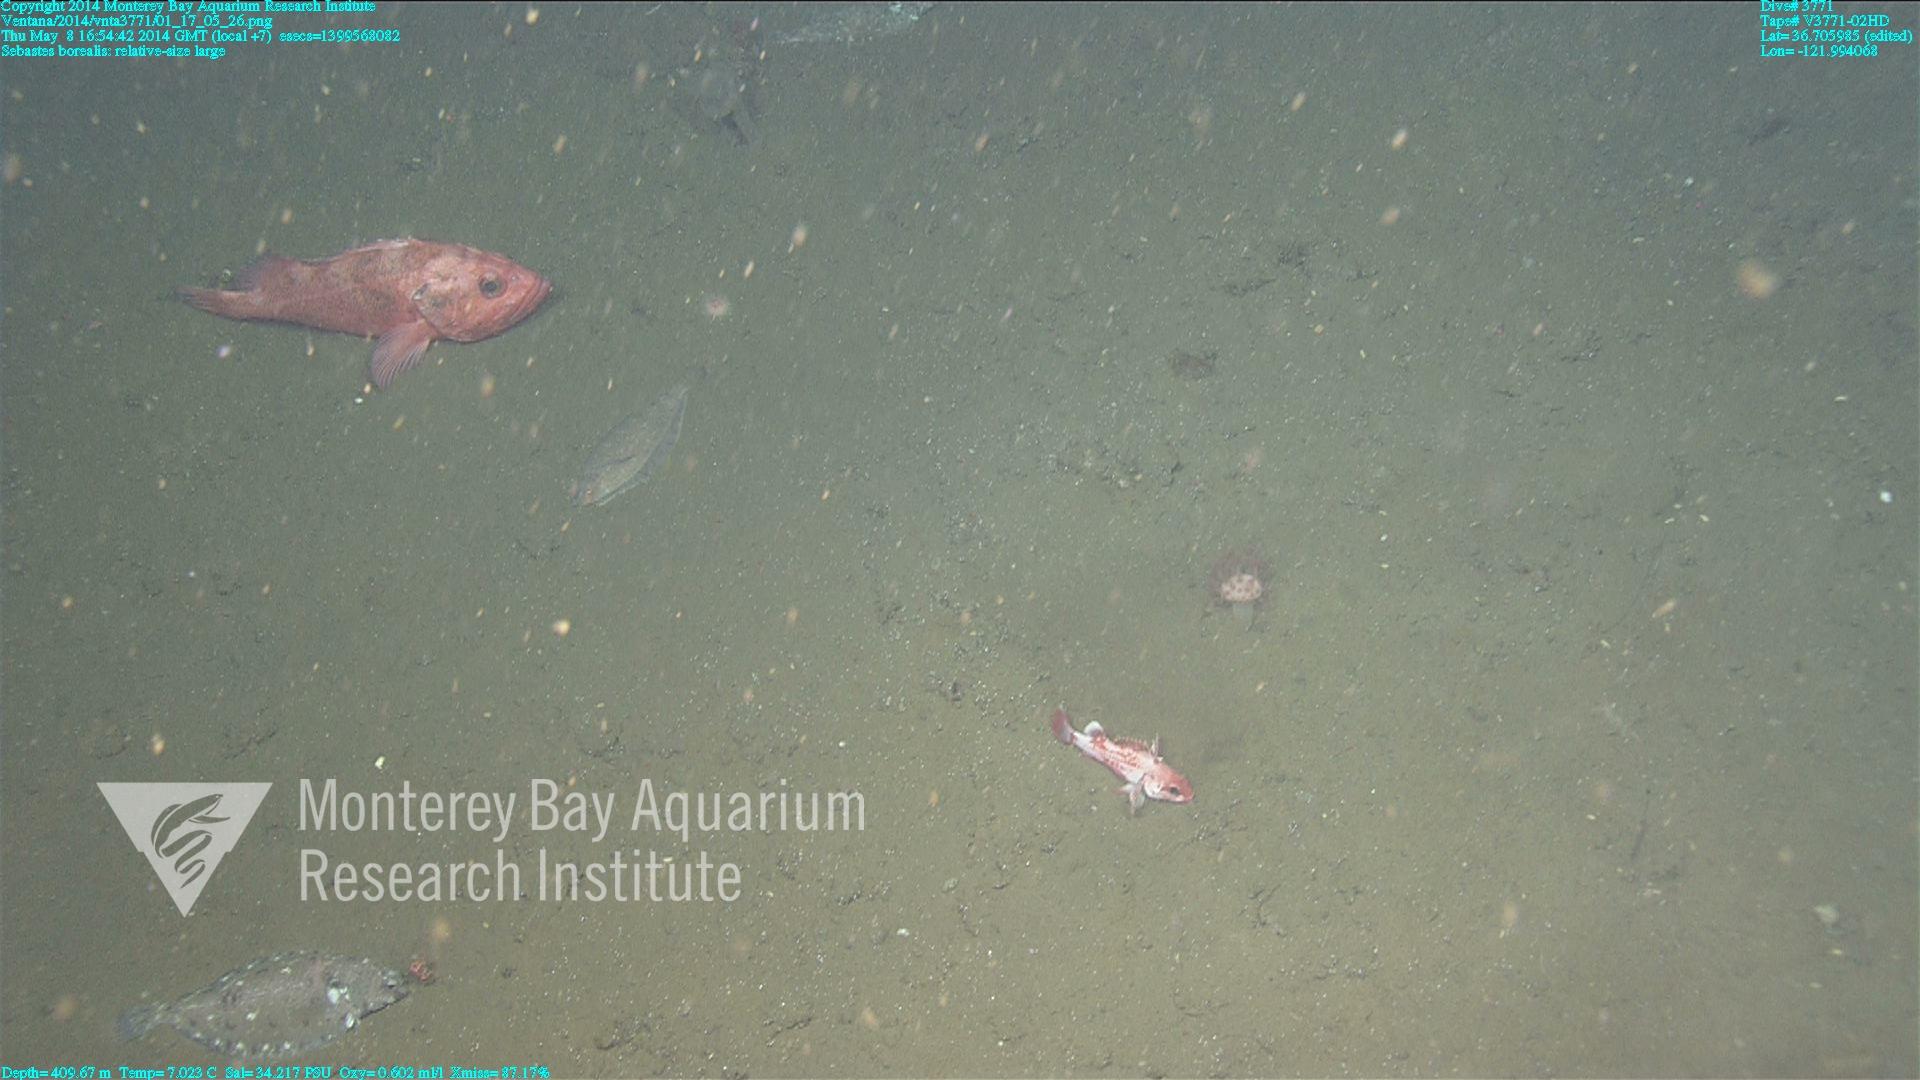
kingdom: Animalia
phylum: Cnidaria
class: Anthozoa
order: Scleralcyonacea
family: Coralliidae
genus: Heteropolypus
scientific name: Heteropolypus ritteri
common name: Ritter's soft coral
